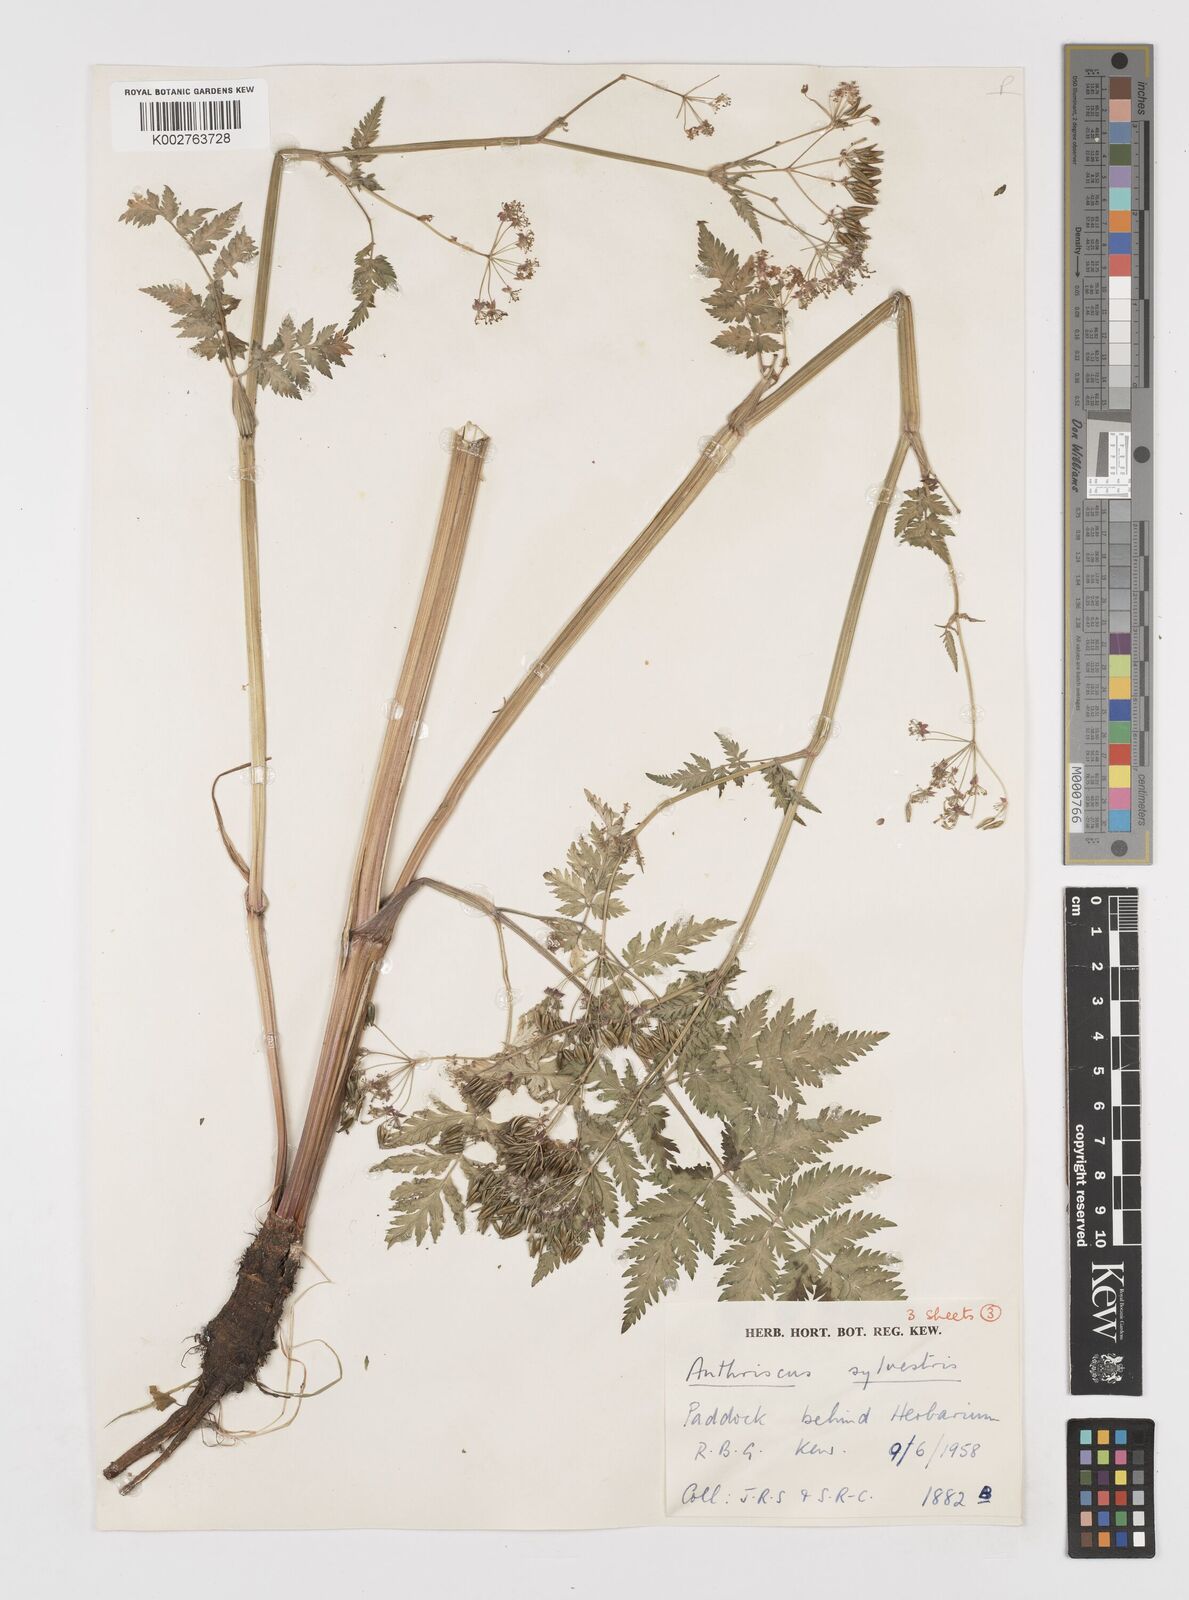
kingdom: Plantae
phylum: Tracheophyta
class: Magnoliopsida
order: Apiales
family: Apiaceae
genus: Anthriscus
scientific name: Anthriscus sylvestris
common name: Cow parsley
